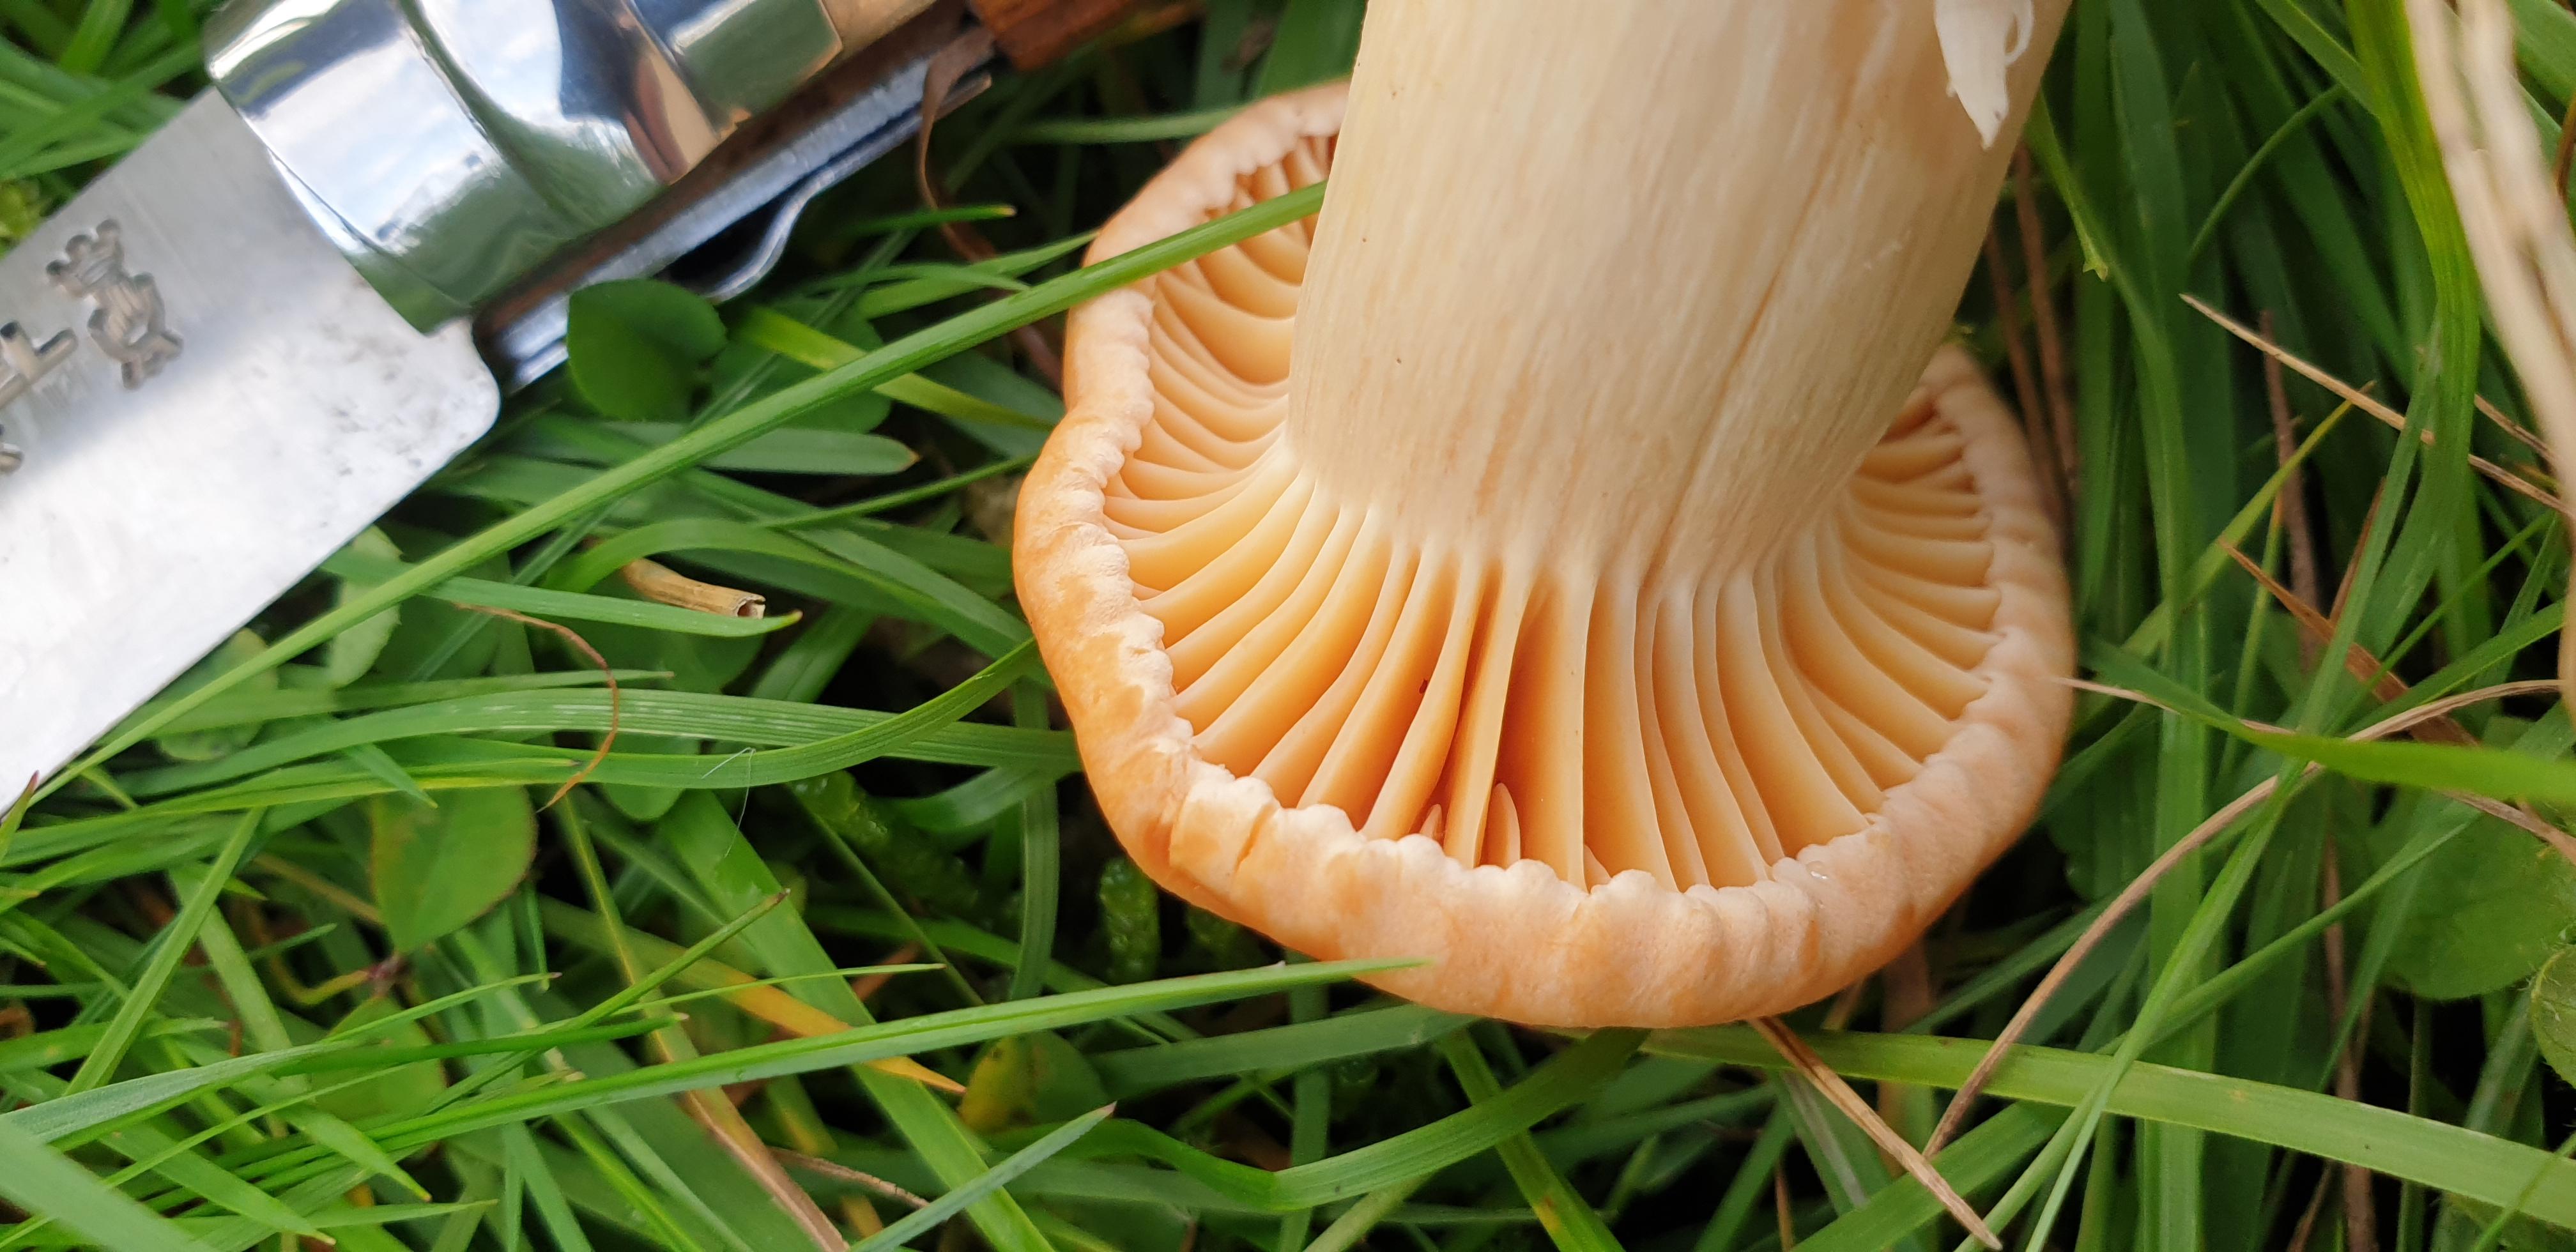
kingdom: Fungi
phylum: Basidiomycota
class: Agaricomycetes
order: Agaricales
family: Hygrophoraceae
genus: Cuphophyllus
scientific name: Cuphophyllus pratensis
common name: eng-vokshat
